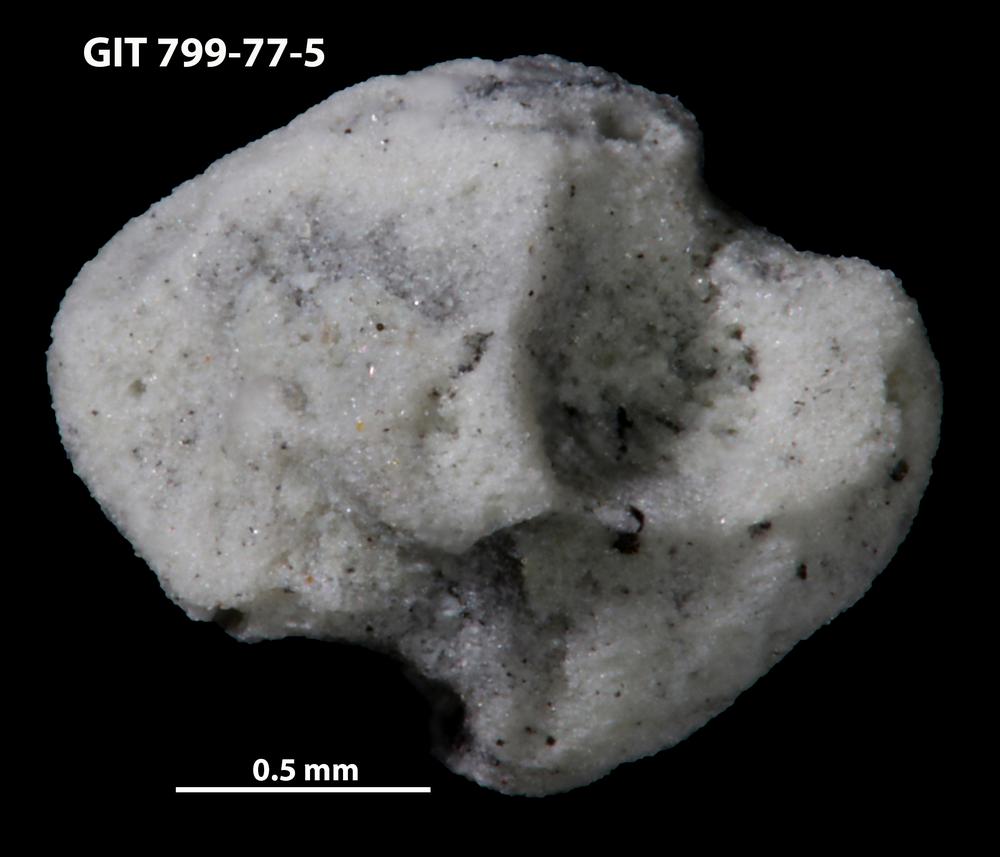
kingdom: Animalia
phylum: Echinodermata
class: Echinoidea
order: Bothriocidaroida
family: Bothriocidaridae
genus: Neobothriocidaris
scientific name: Neobothriocidaris
